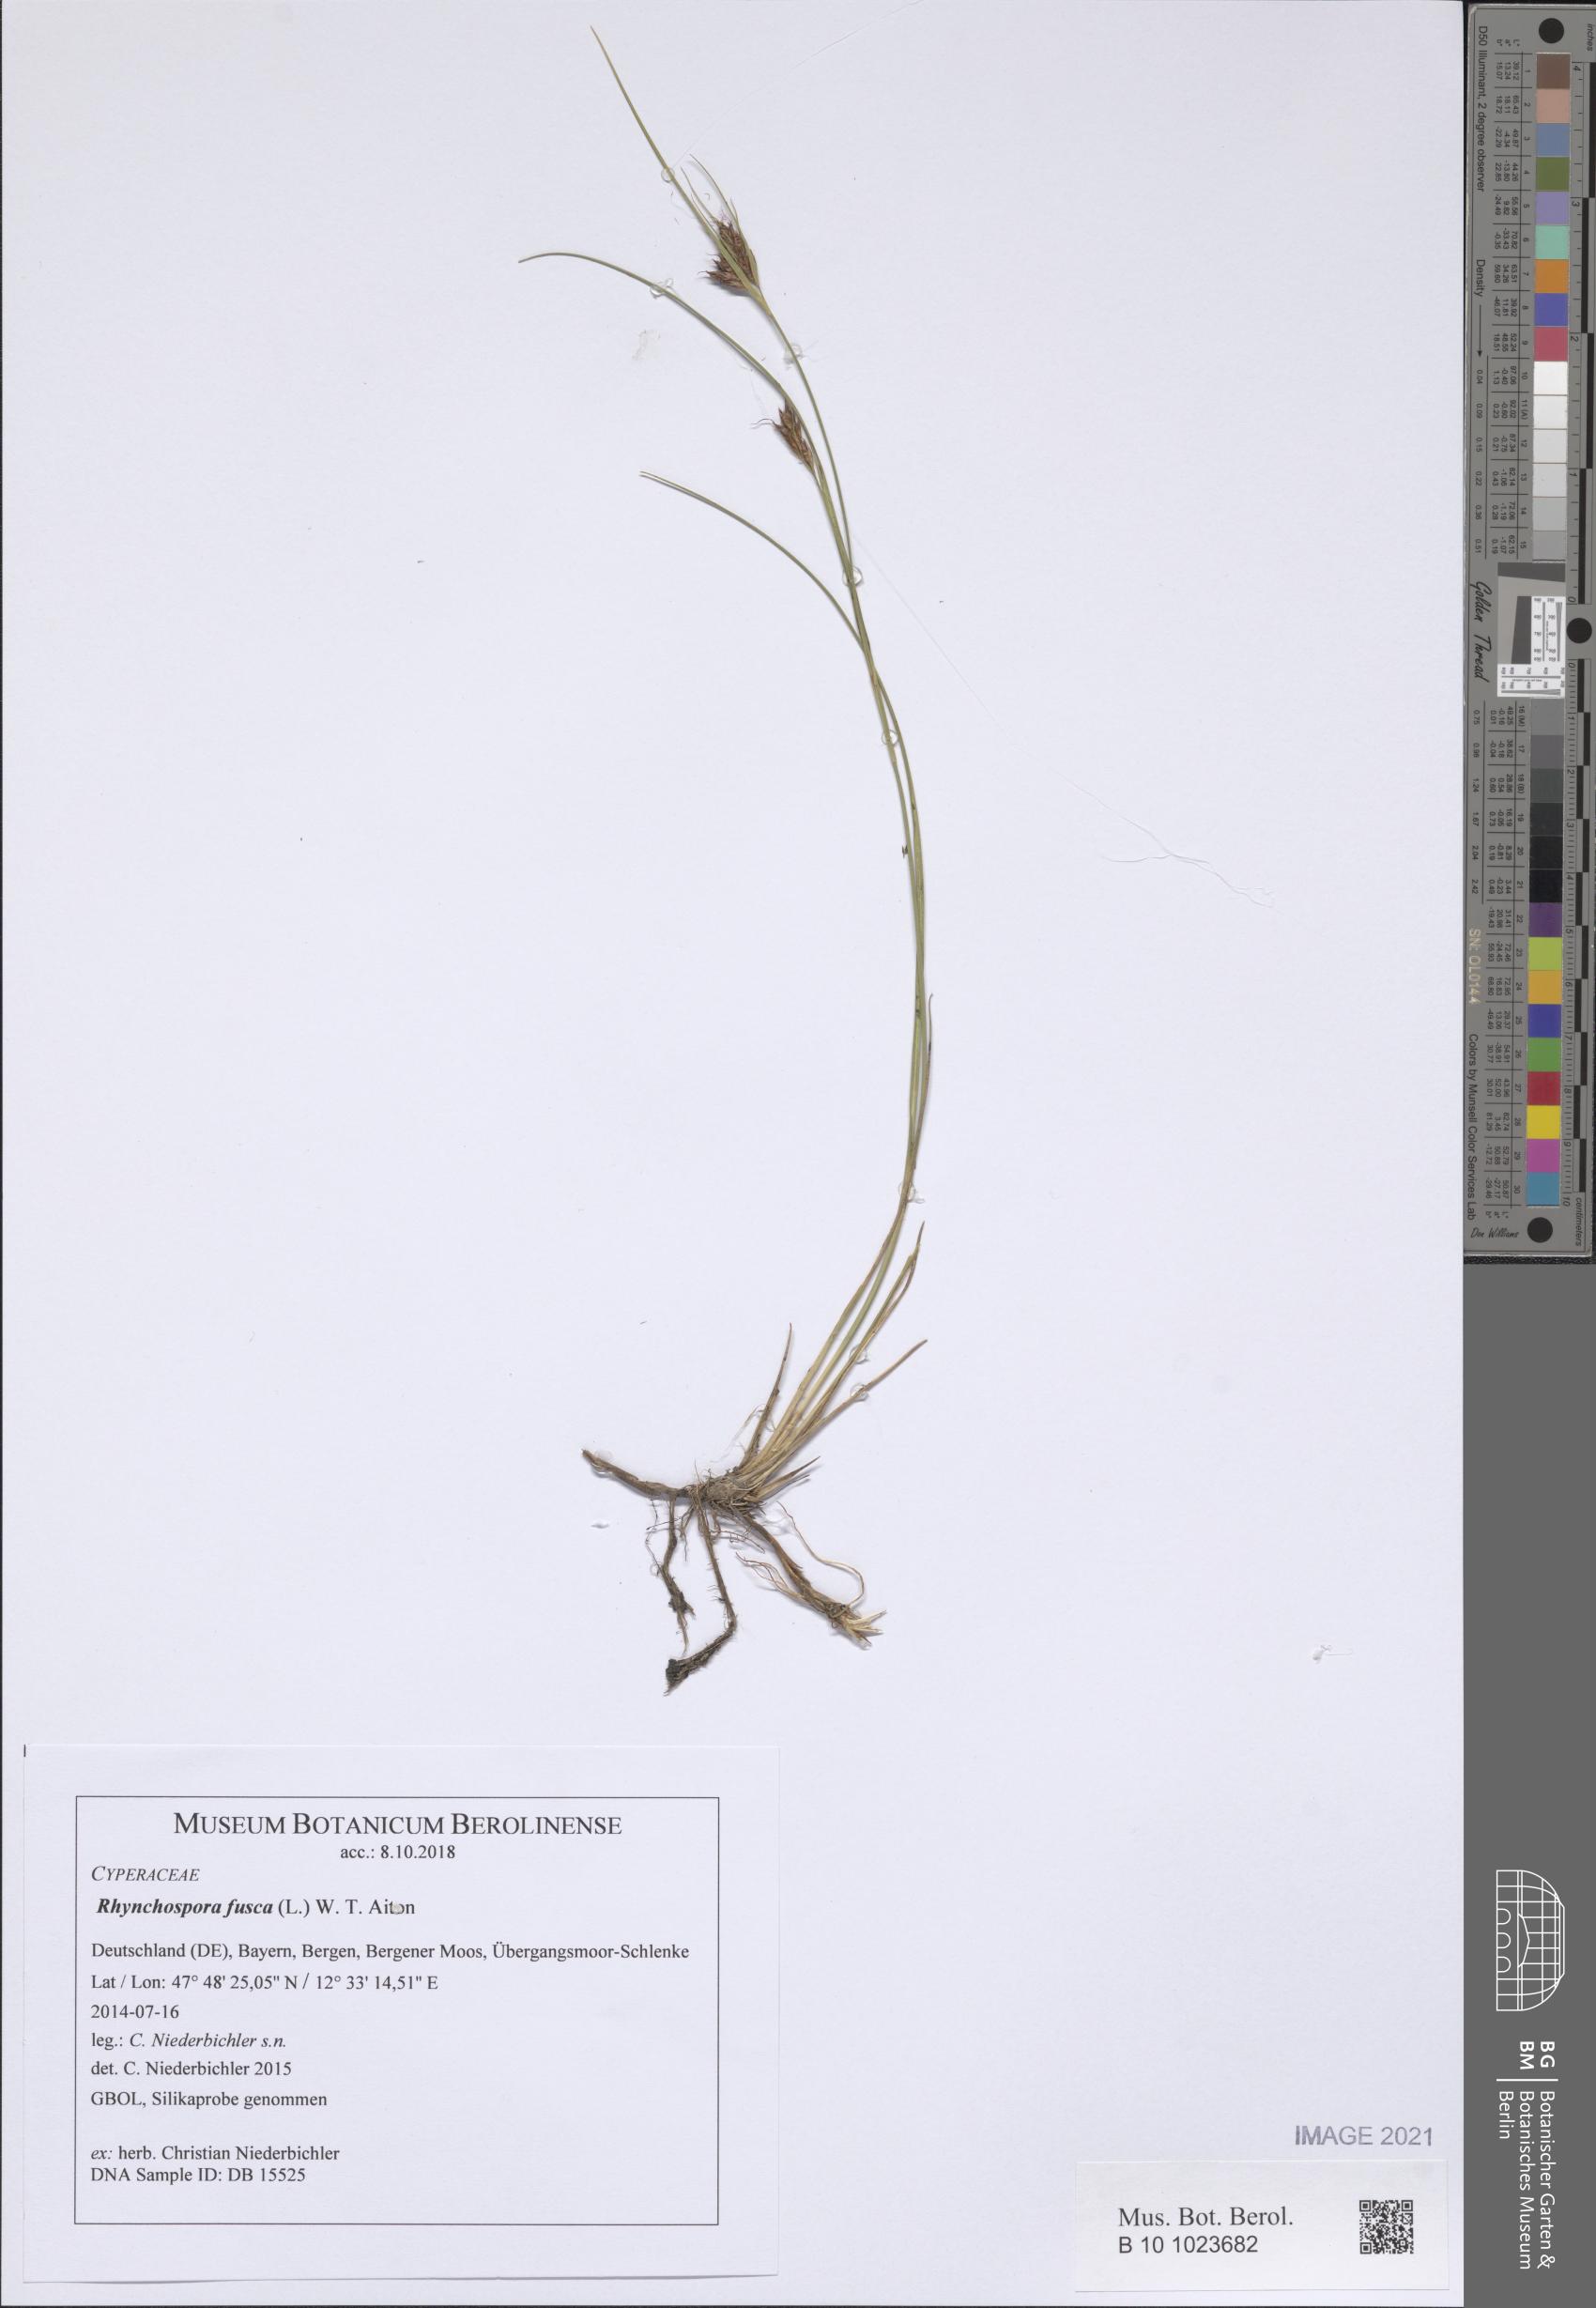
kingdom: Plantae
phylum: Tracheophyta
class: Liliopsida
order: Poales
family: Cyperaceae
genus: Rhynchospora
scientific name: Rhynchospora fusca
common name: Brown beak-sedge
